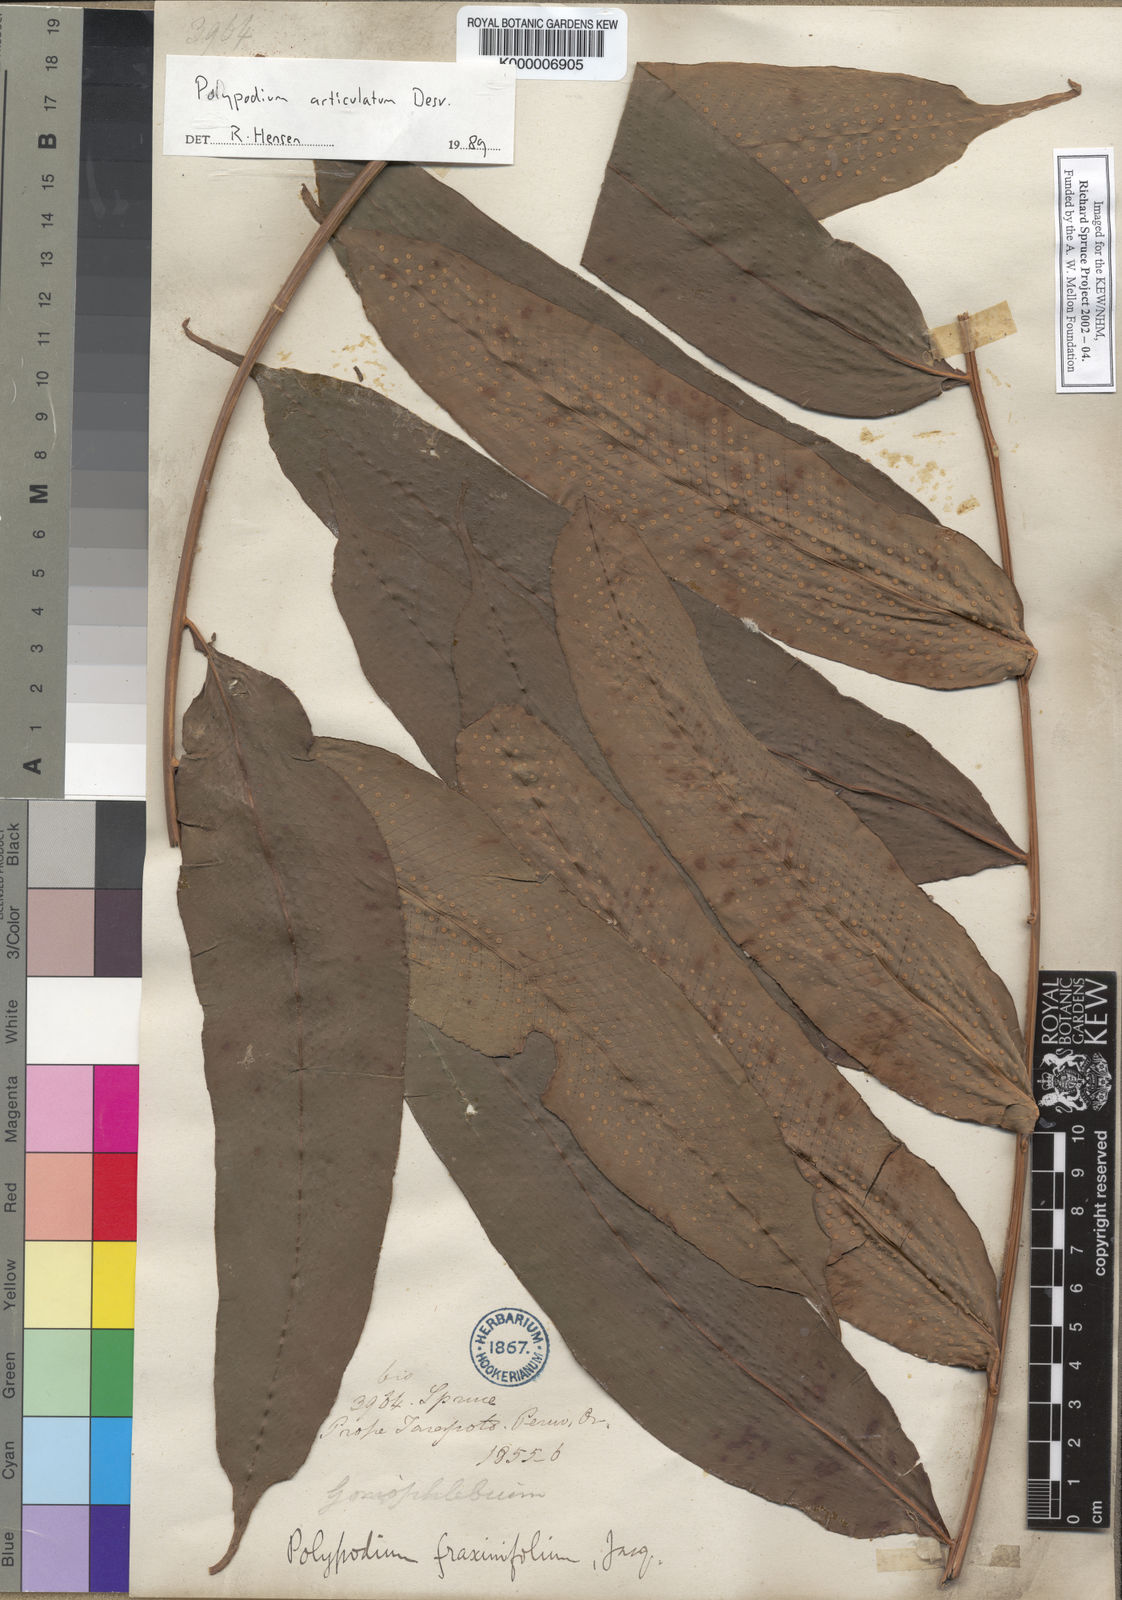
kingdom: Plantae
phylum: Tracheophyta
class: Polypodiopsida
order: Polypodiales
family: Polypodiaceae
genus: Serpocaulon
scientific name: Serpocaulon articulatum
